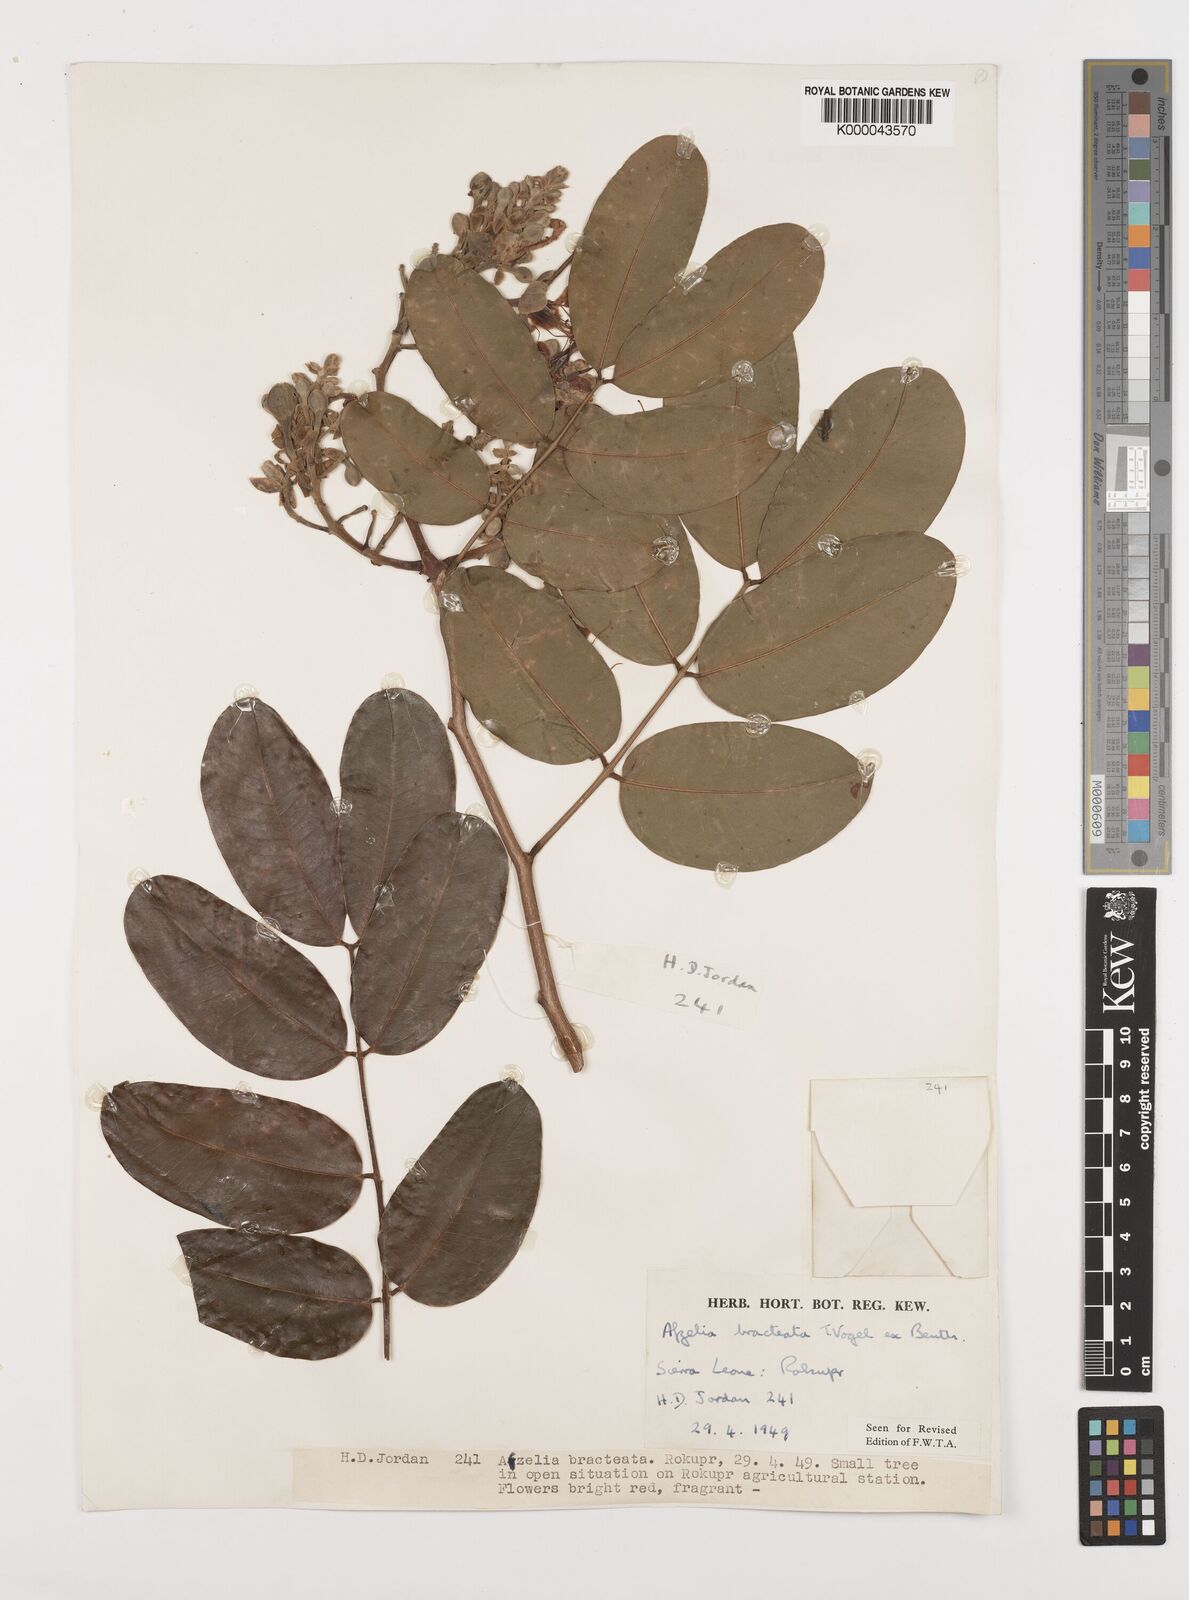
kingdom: Plantae
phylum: Tracheophyta
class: Magnoliopsida
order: Fabales
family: Fabaceae
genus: Afzelia
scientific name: Afzelia
